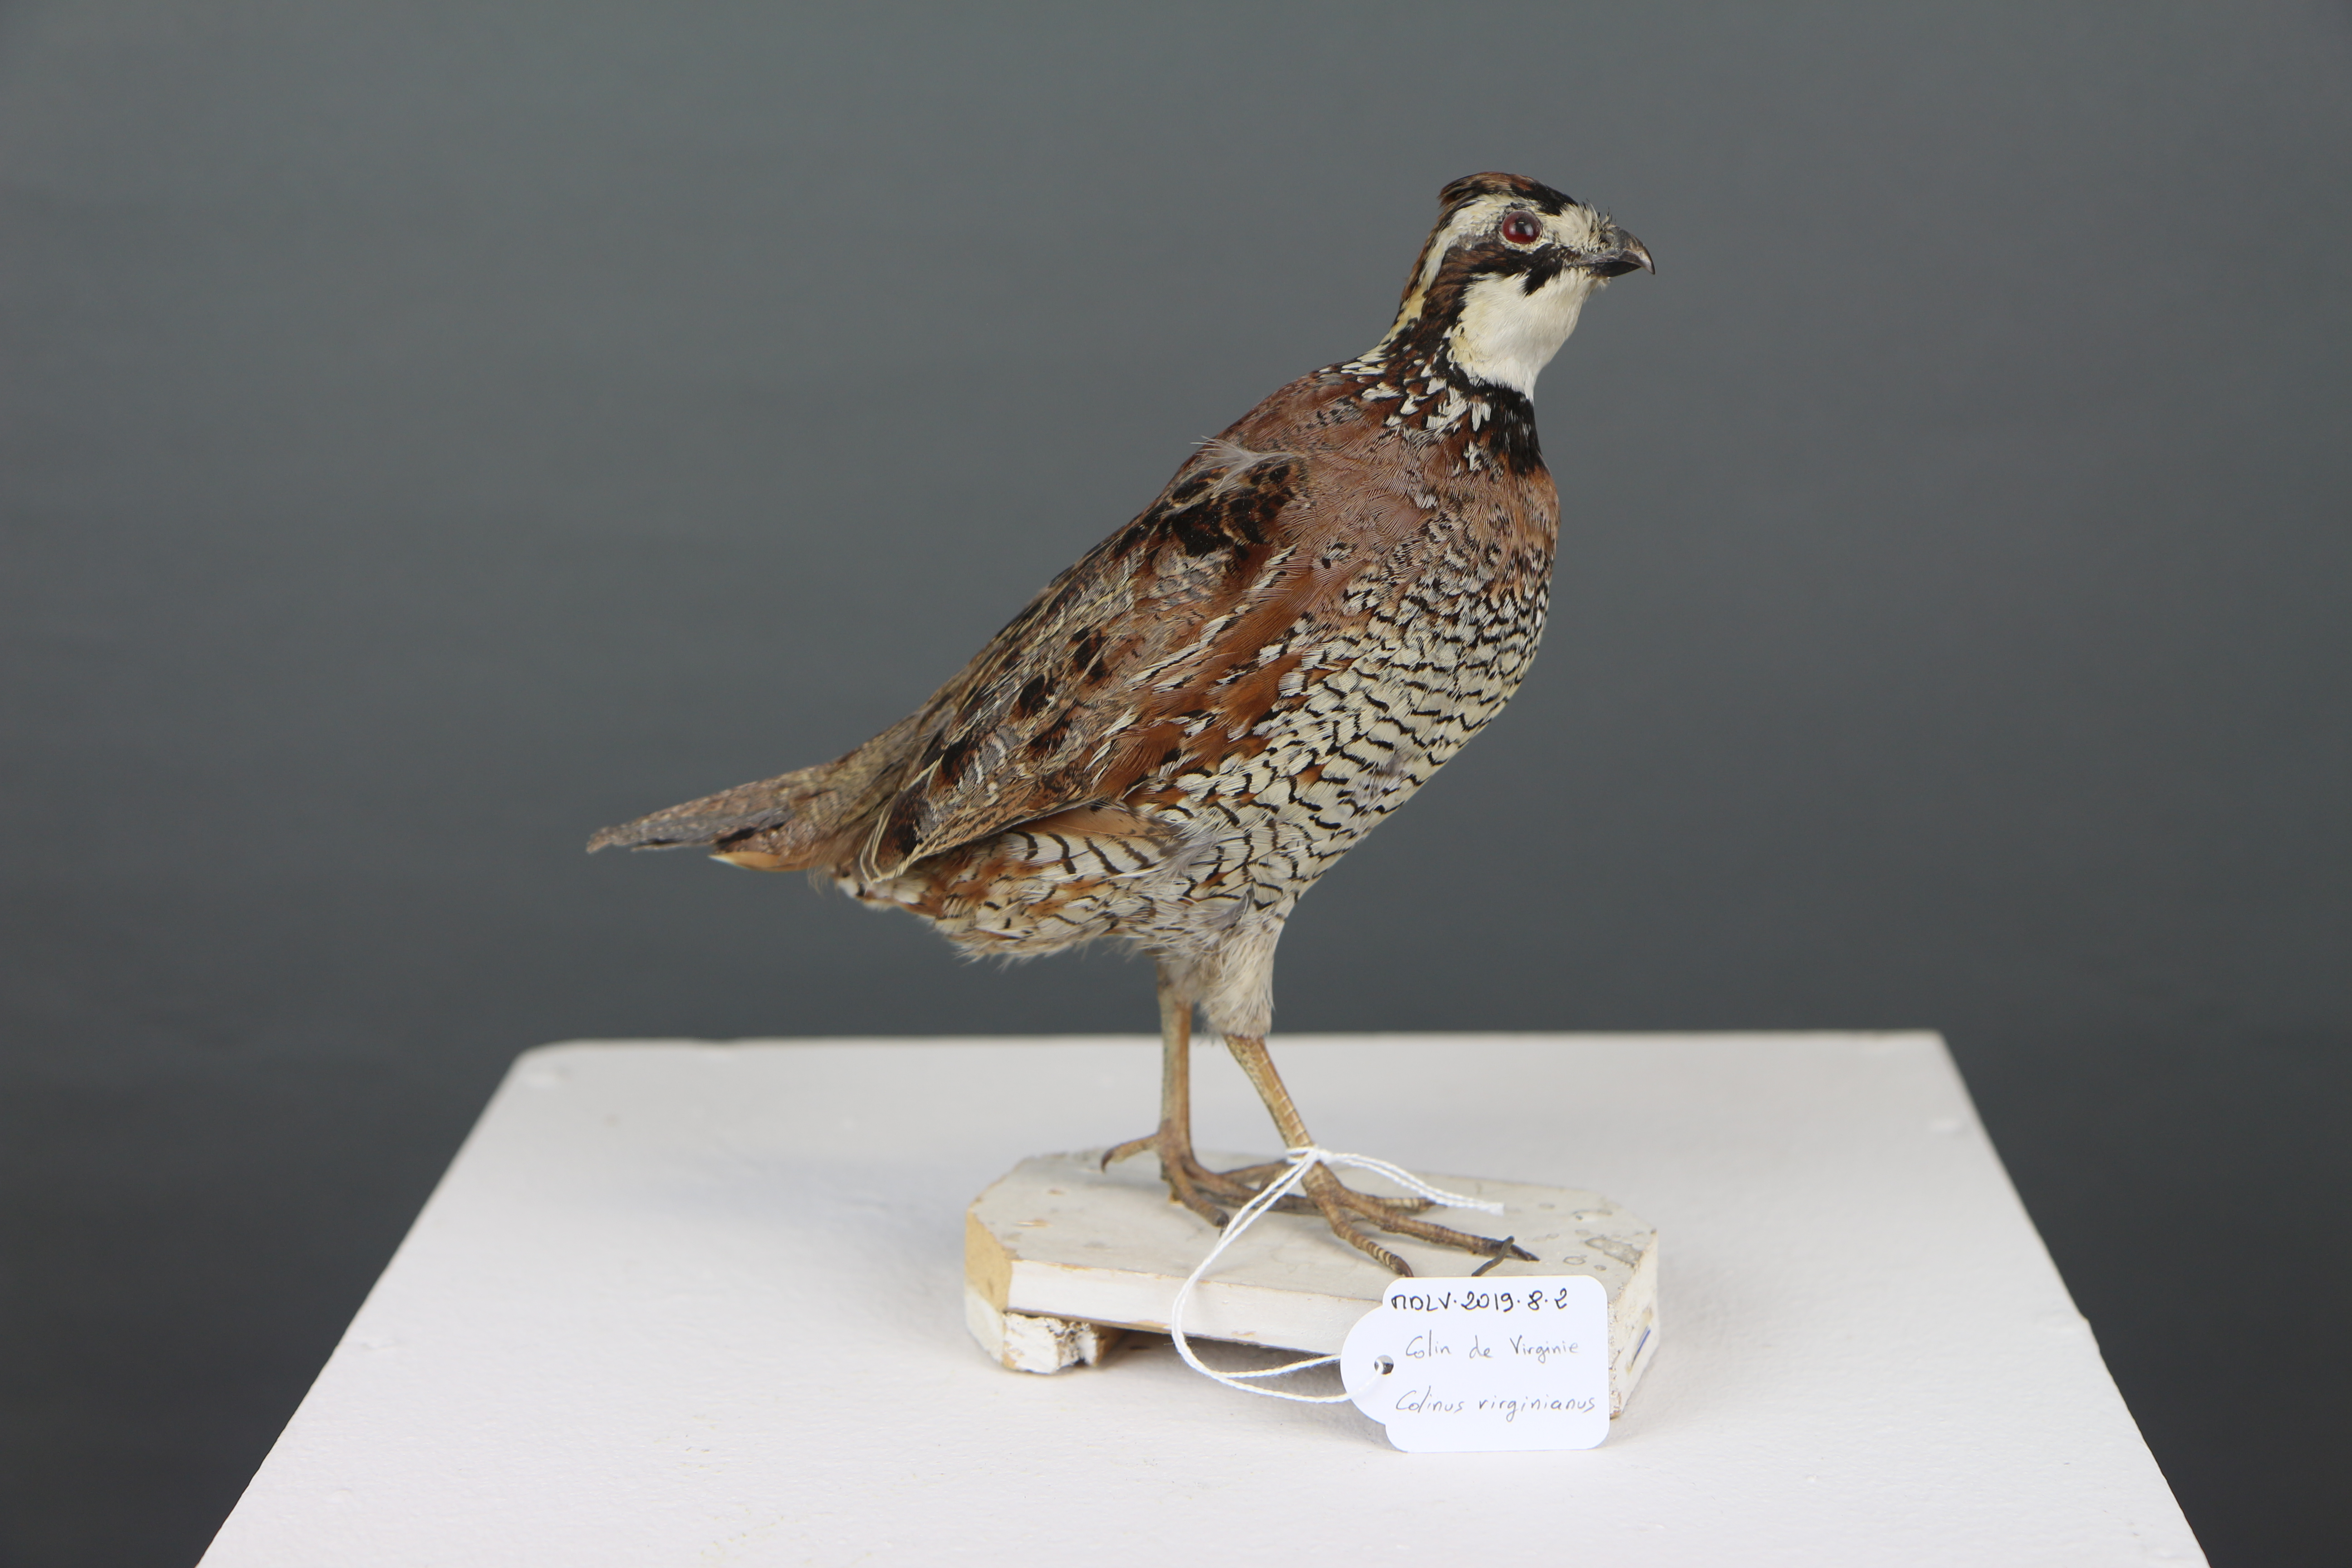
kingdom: Animalia
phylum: Chordata
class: Aves
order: Galliformes
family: Odontophoridae
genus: Colinus
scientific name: Colinus virginianus
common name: Northern bobwhite
